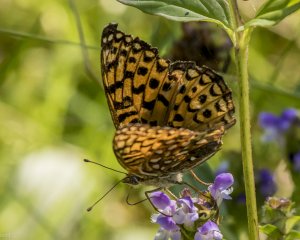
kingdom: Animalia
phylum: Arthropoda
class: Insecta
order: Lepidoptera
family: Nymphalidae
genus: Speyeria
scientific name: Speyeria atlantis
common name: Atlantis Fritillary
